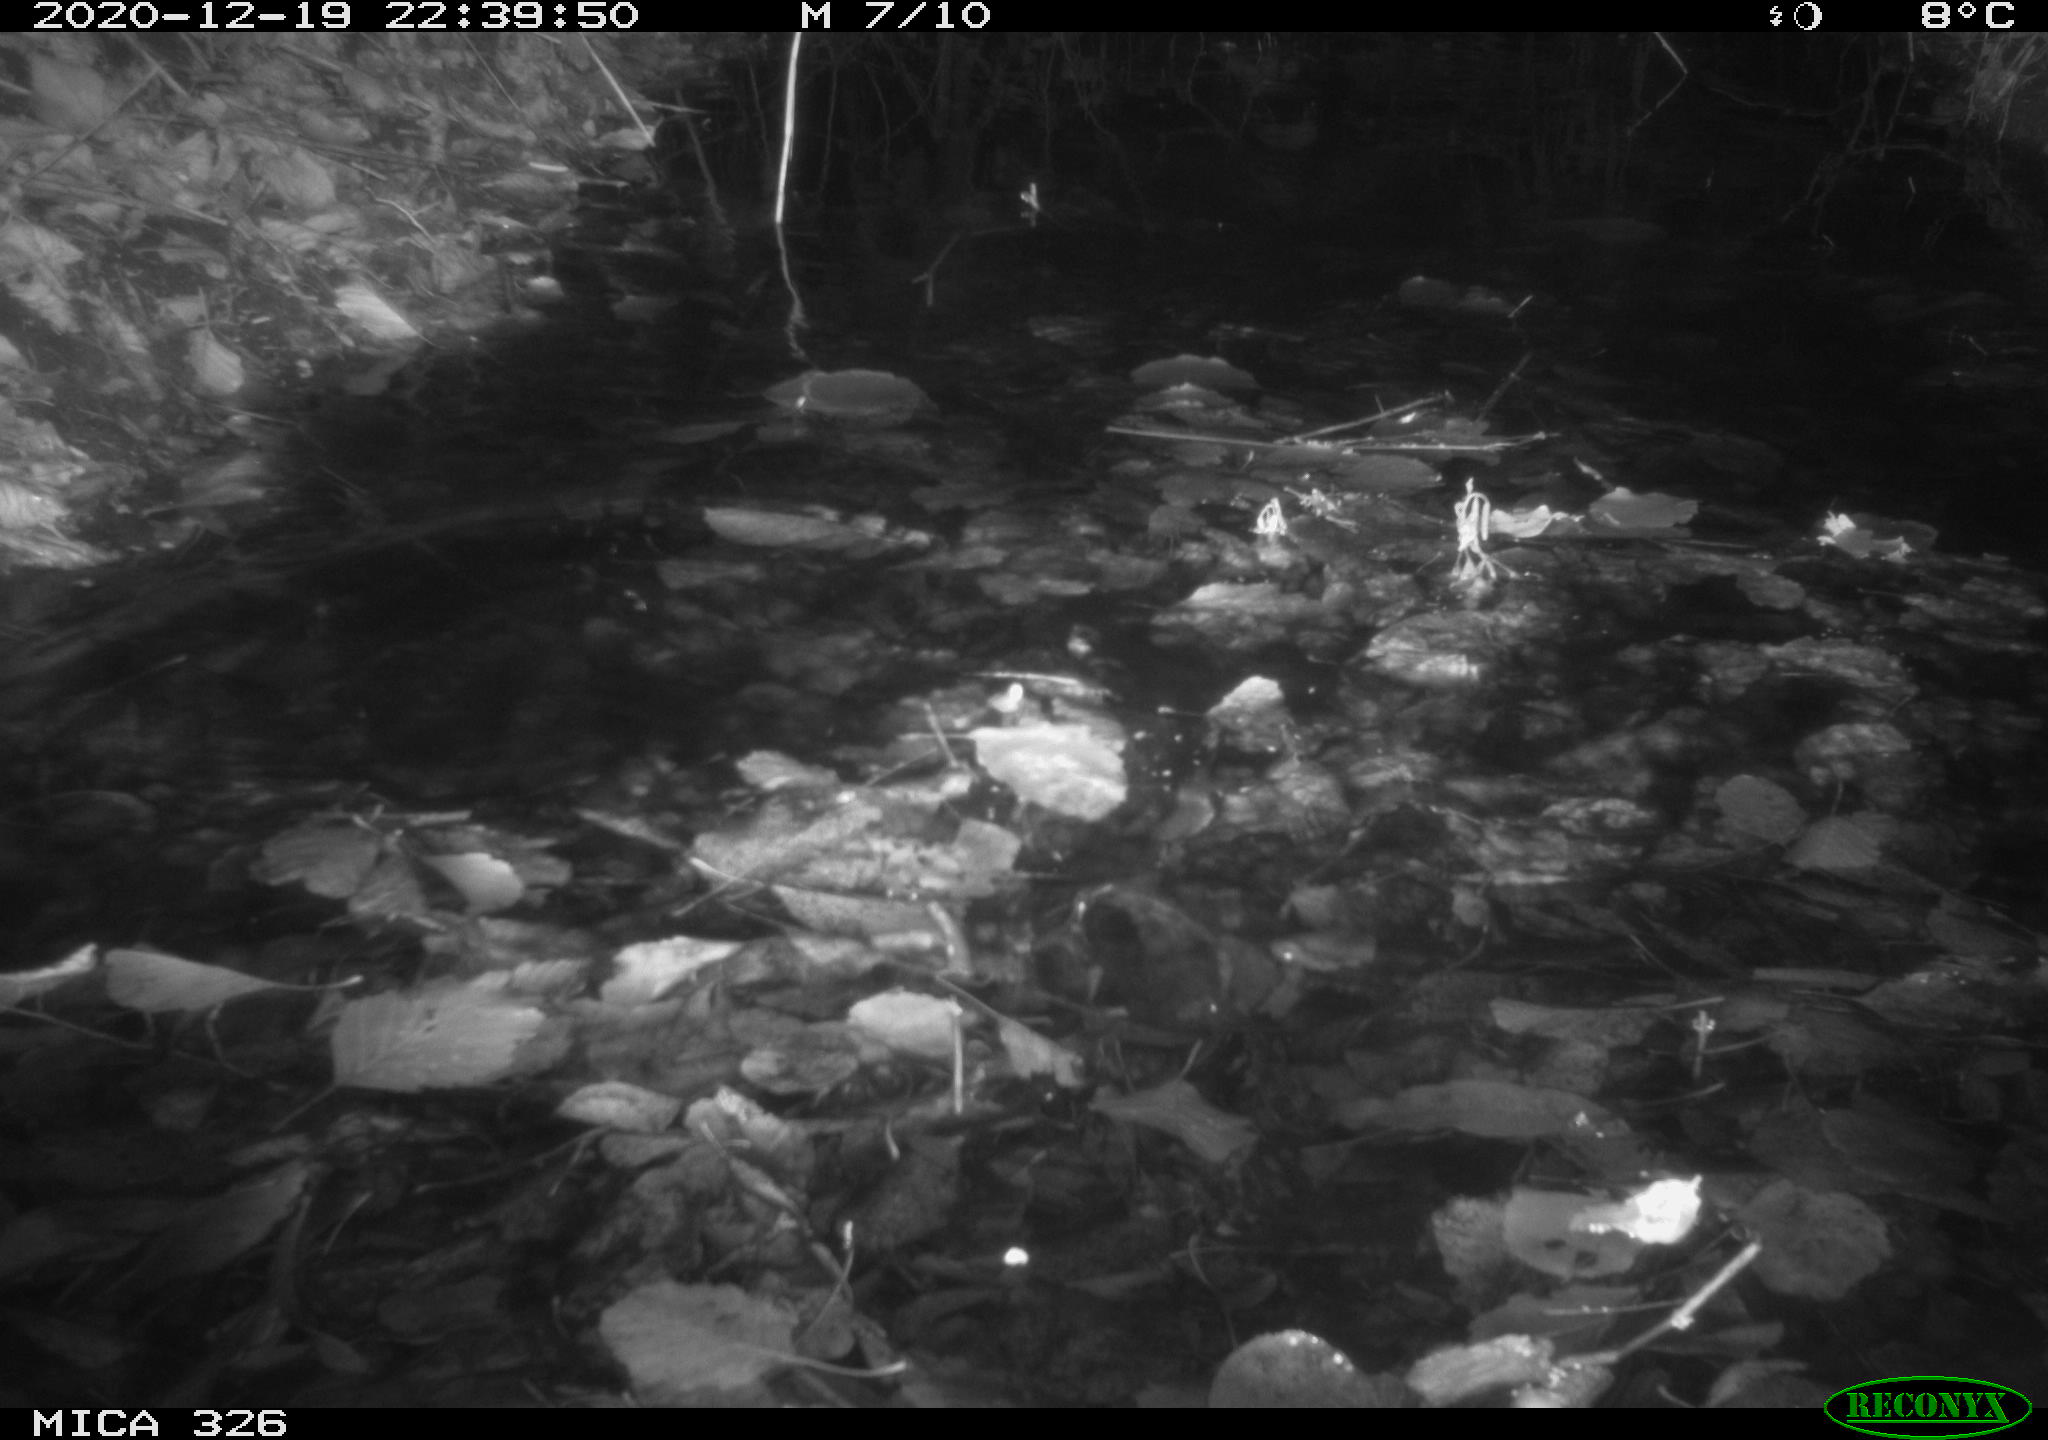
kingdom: Animalia
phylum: Chordata
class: Aves
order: Strigiformes
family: Strigidae
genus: Strix
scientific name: Strix aluco
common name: Tawny owl
